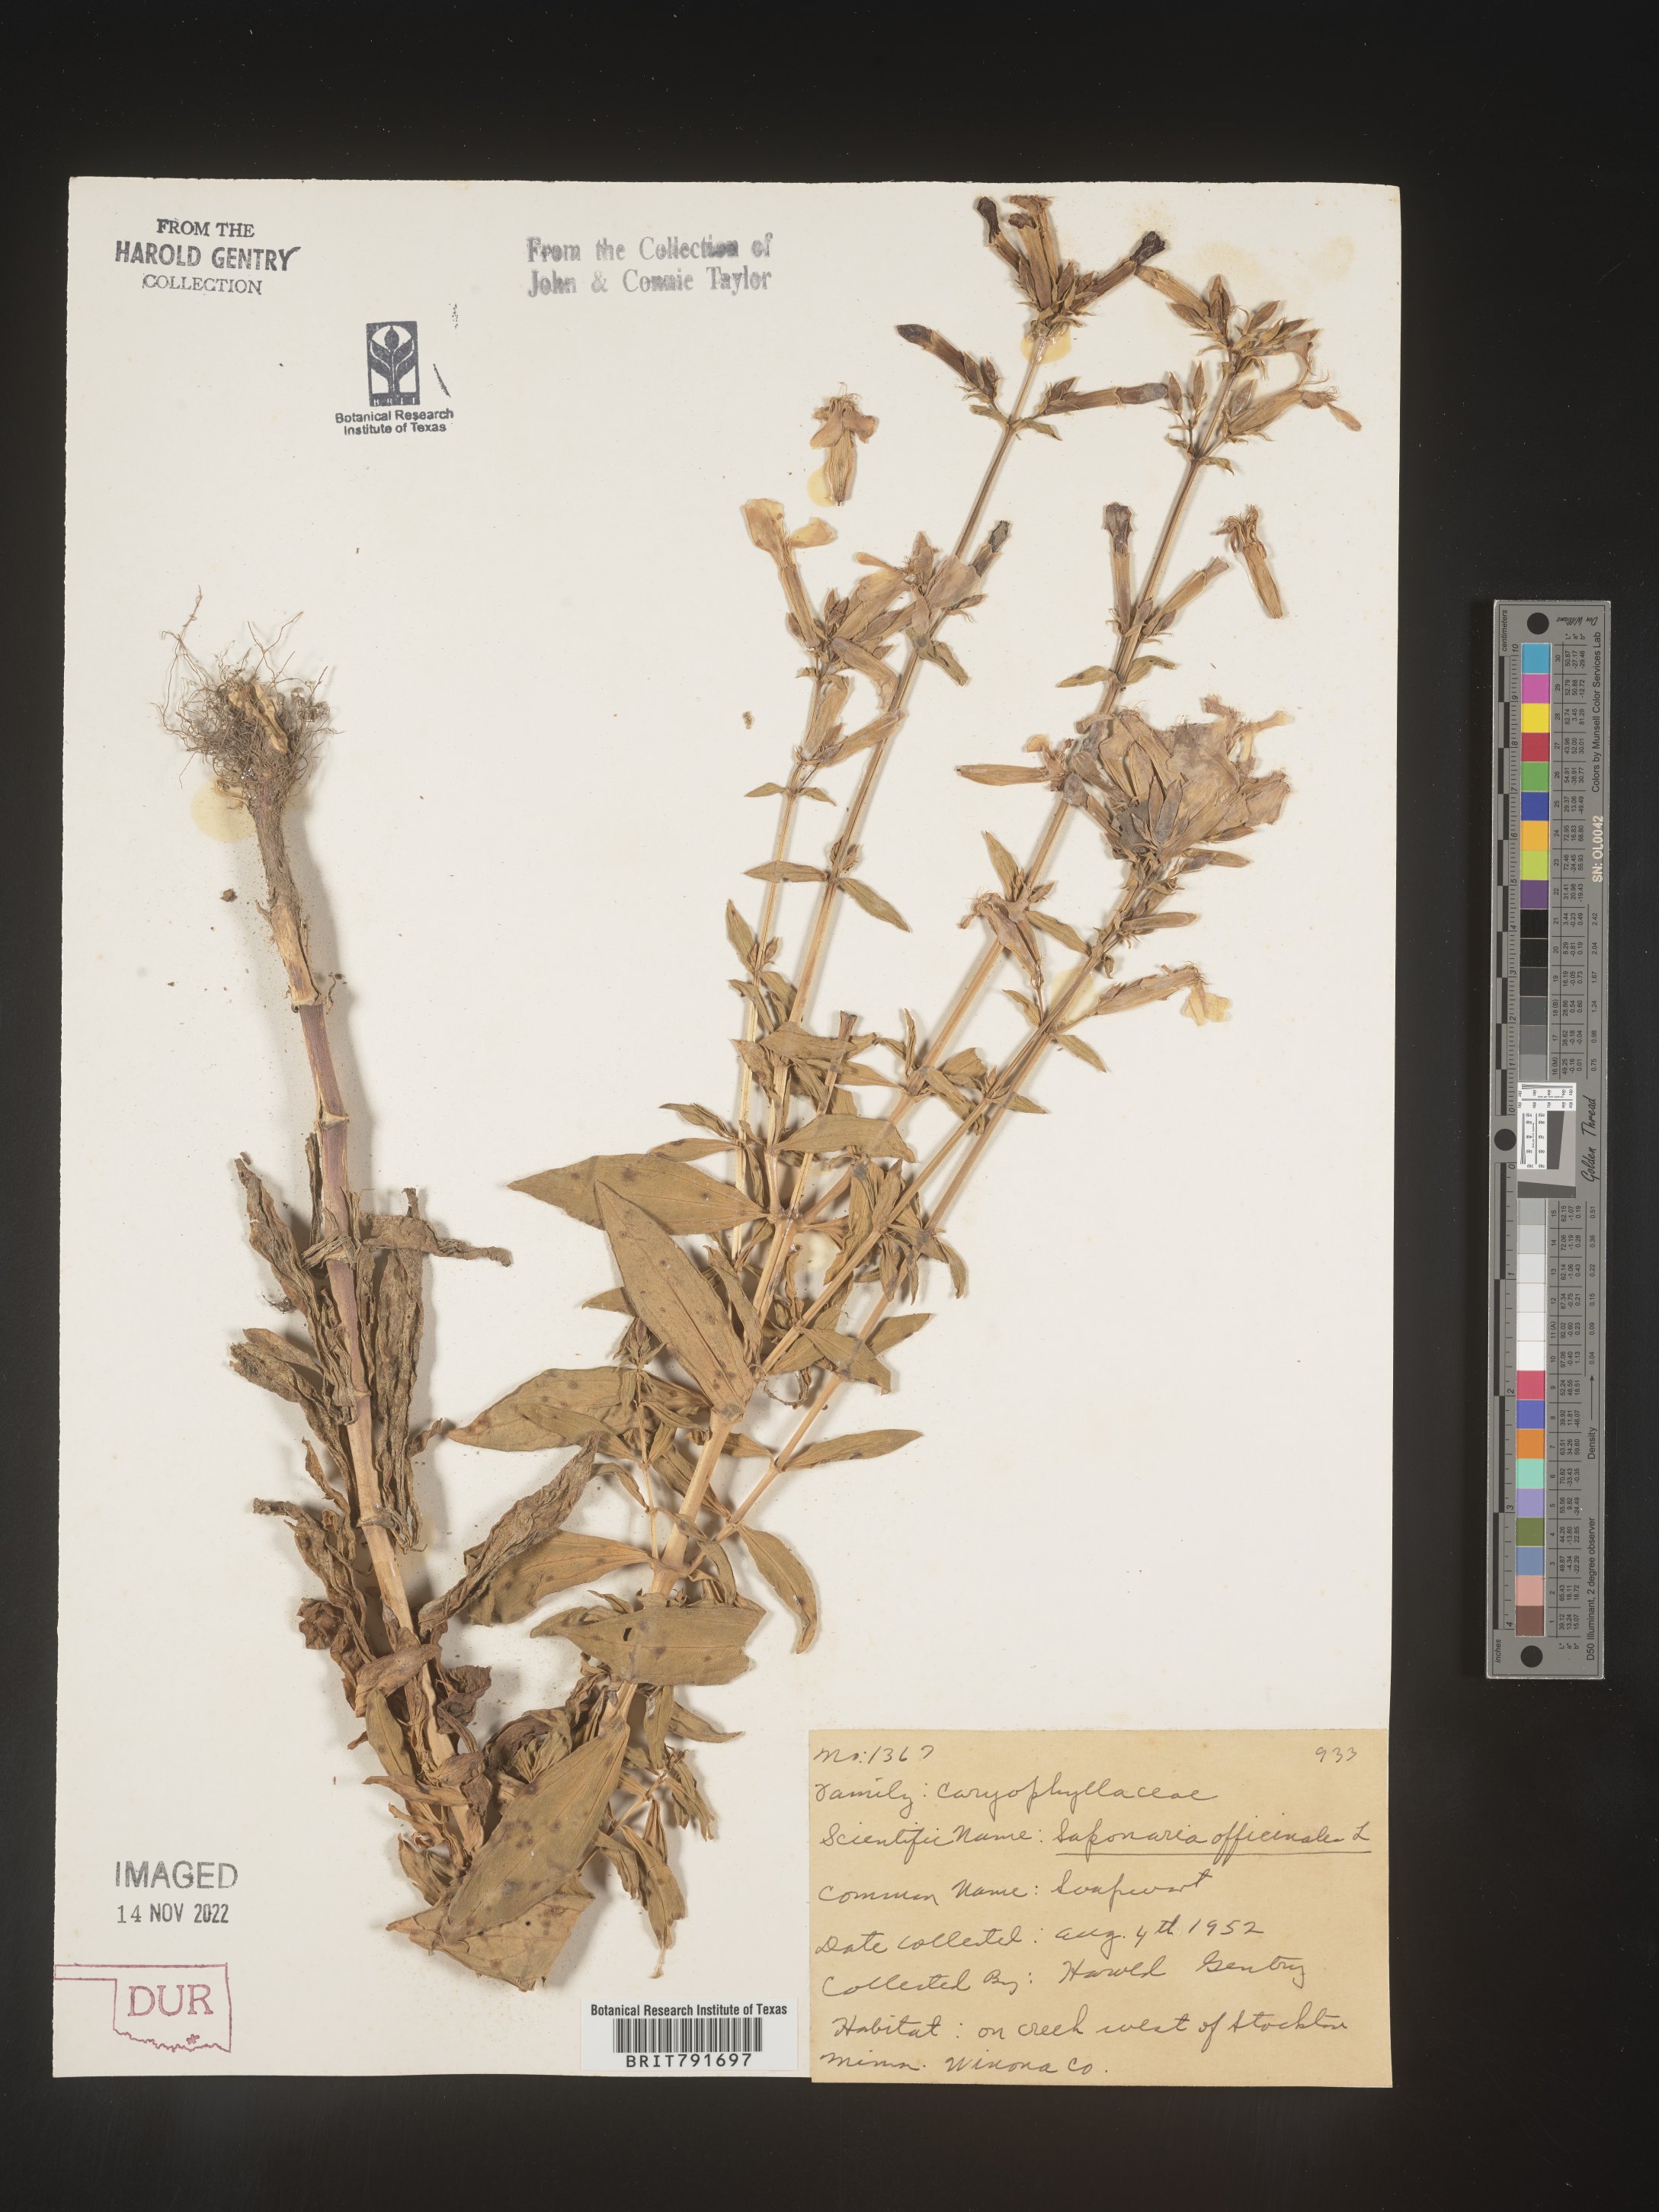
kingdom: Plantae
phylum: Tracheophyta
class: Magnoliopsida
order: Caryophyllales
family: Caryophyllaceae
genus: Saponaria
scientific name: Saponaria officinalis
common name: Soapwort
